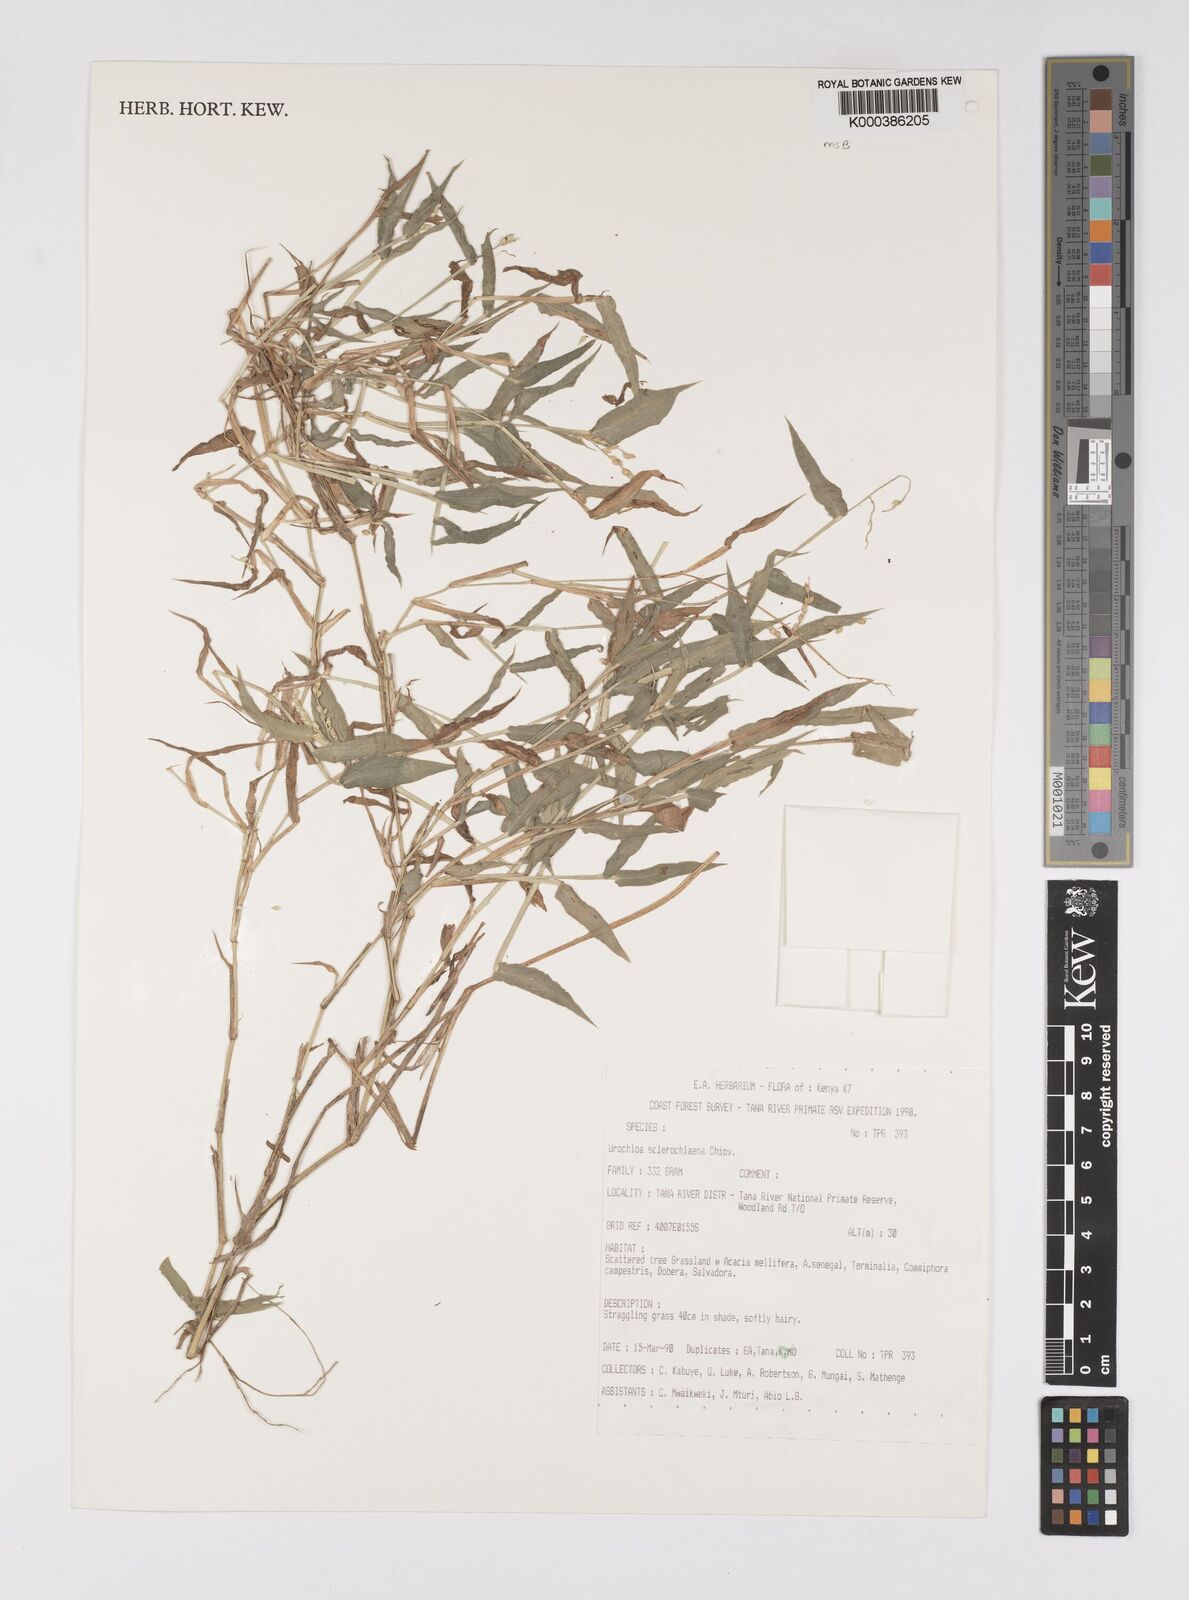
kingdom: Plantae
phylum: Tracheophyta
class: Liliopsida
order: Poales
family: Poaceae
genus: Urochloa
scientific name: Urochloa sclerochlaena
